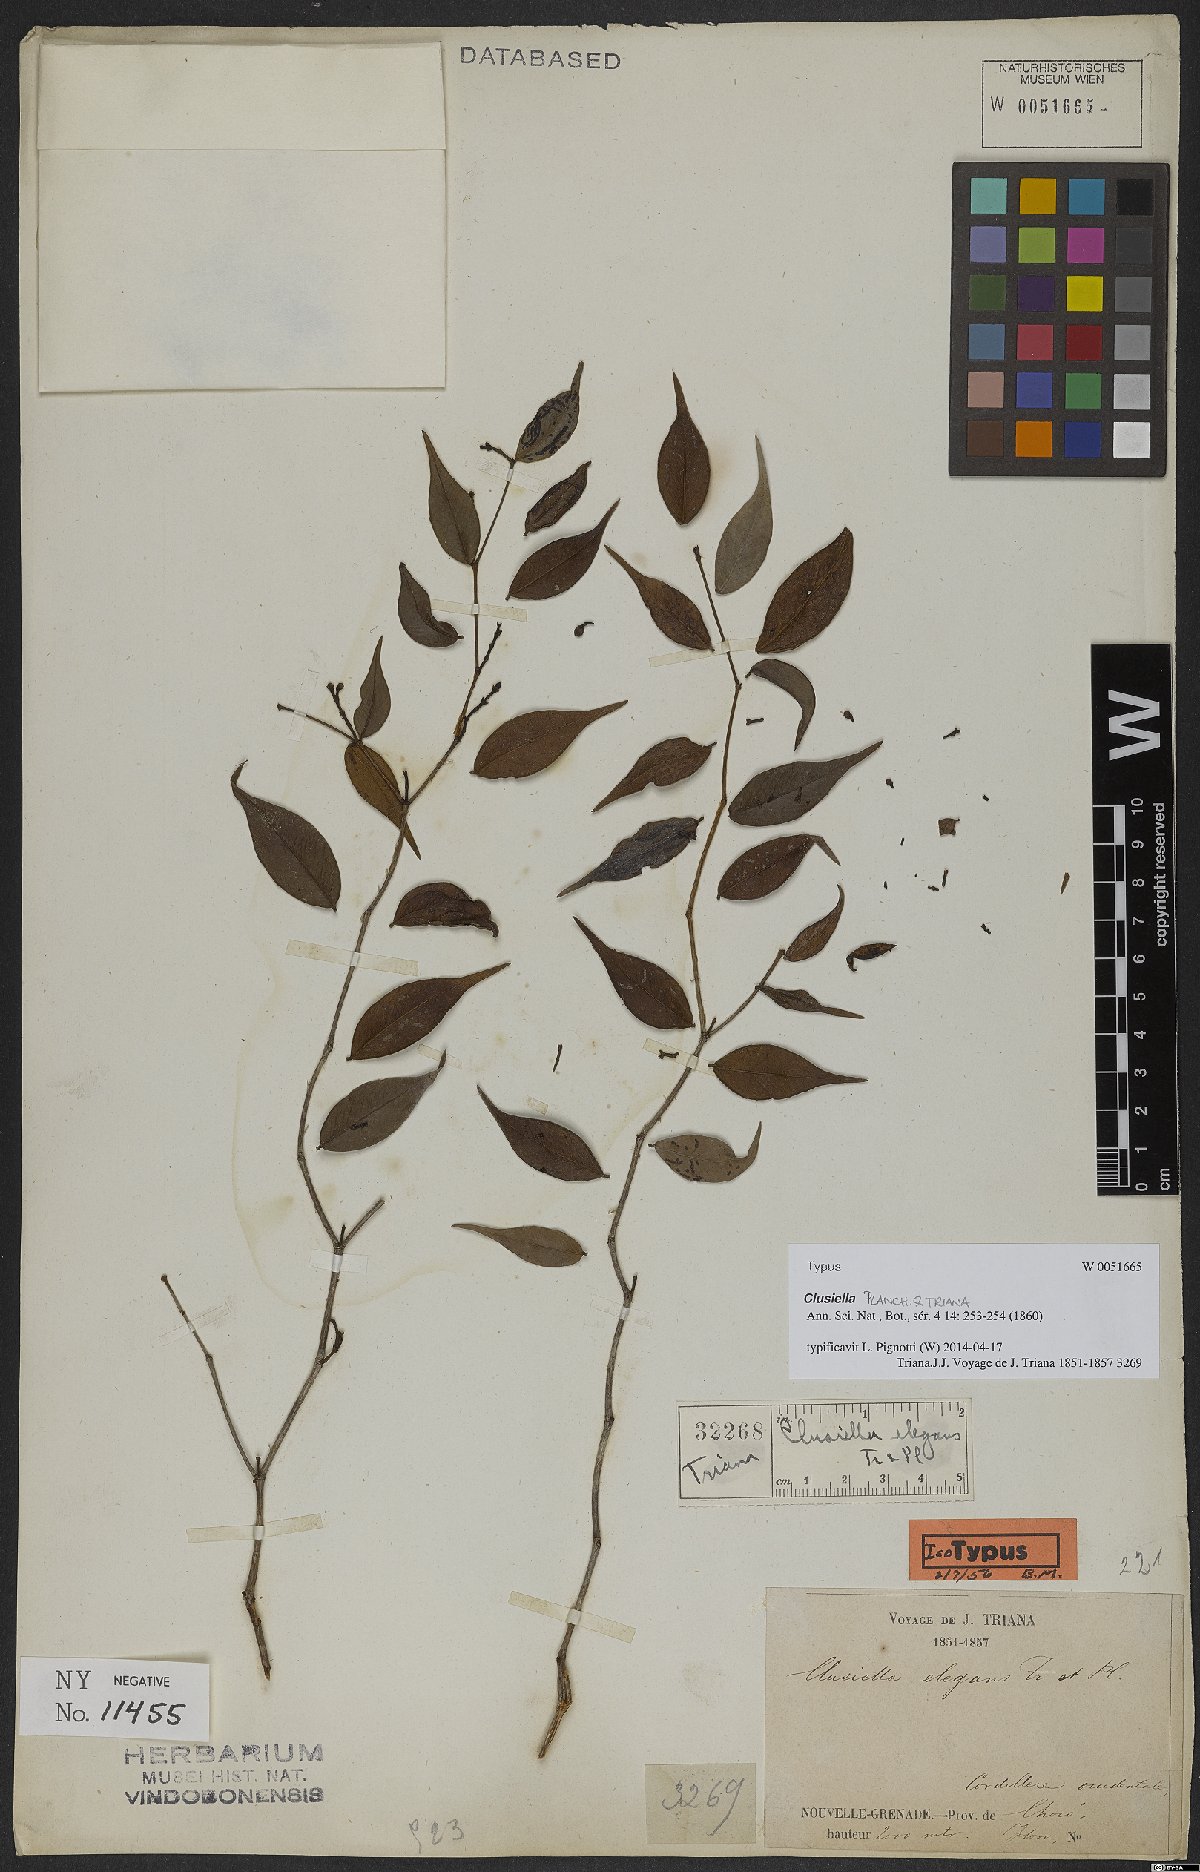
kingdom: Plantae
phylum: Tracheophyta
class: Magnoliopsida
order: Malpighiales
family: Calophyllaceae
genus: Clusiella
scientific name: Clusiella elegans
